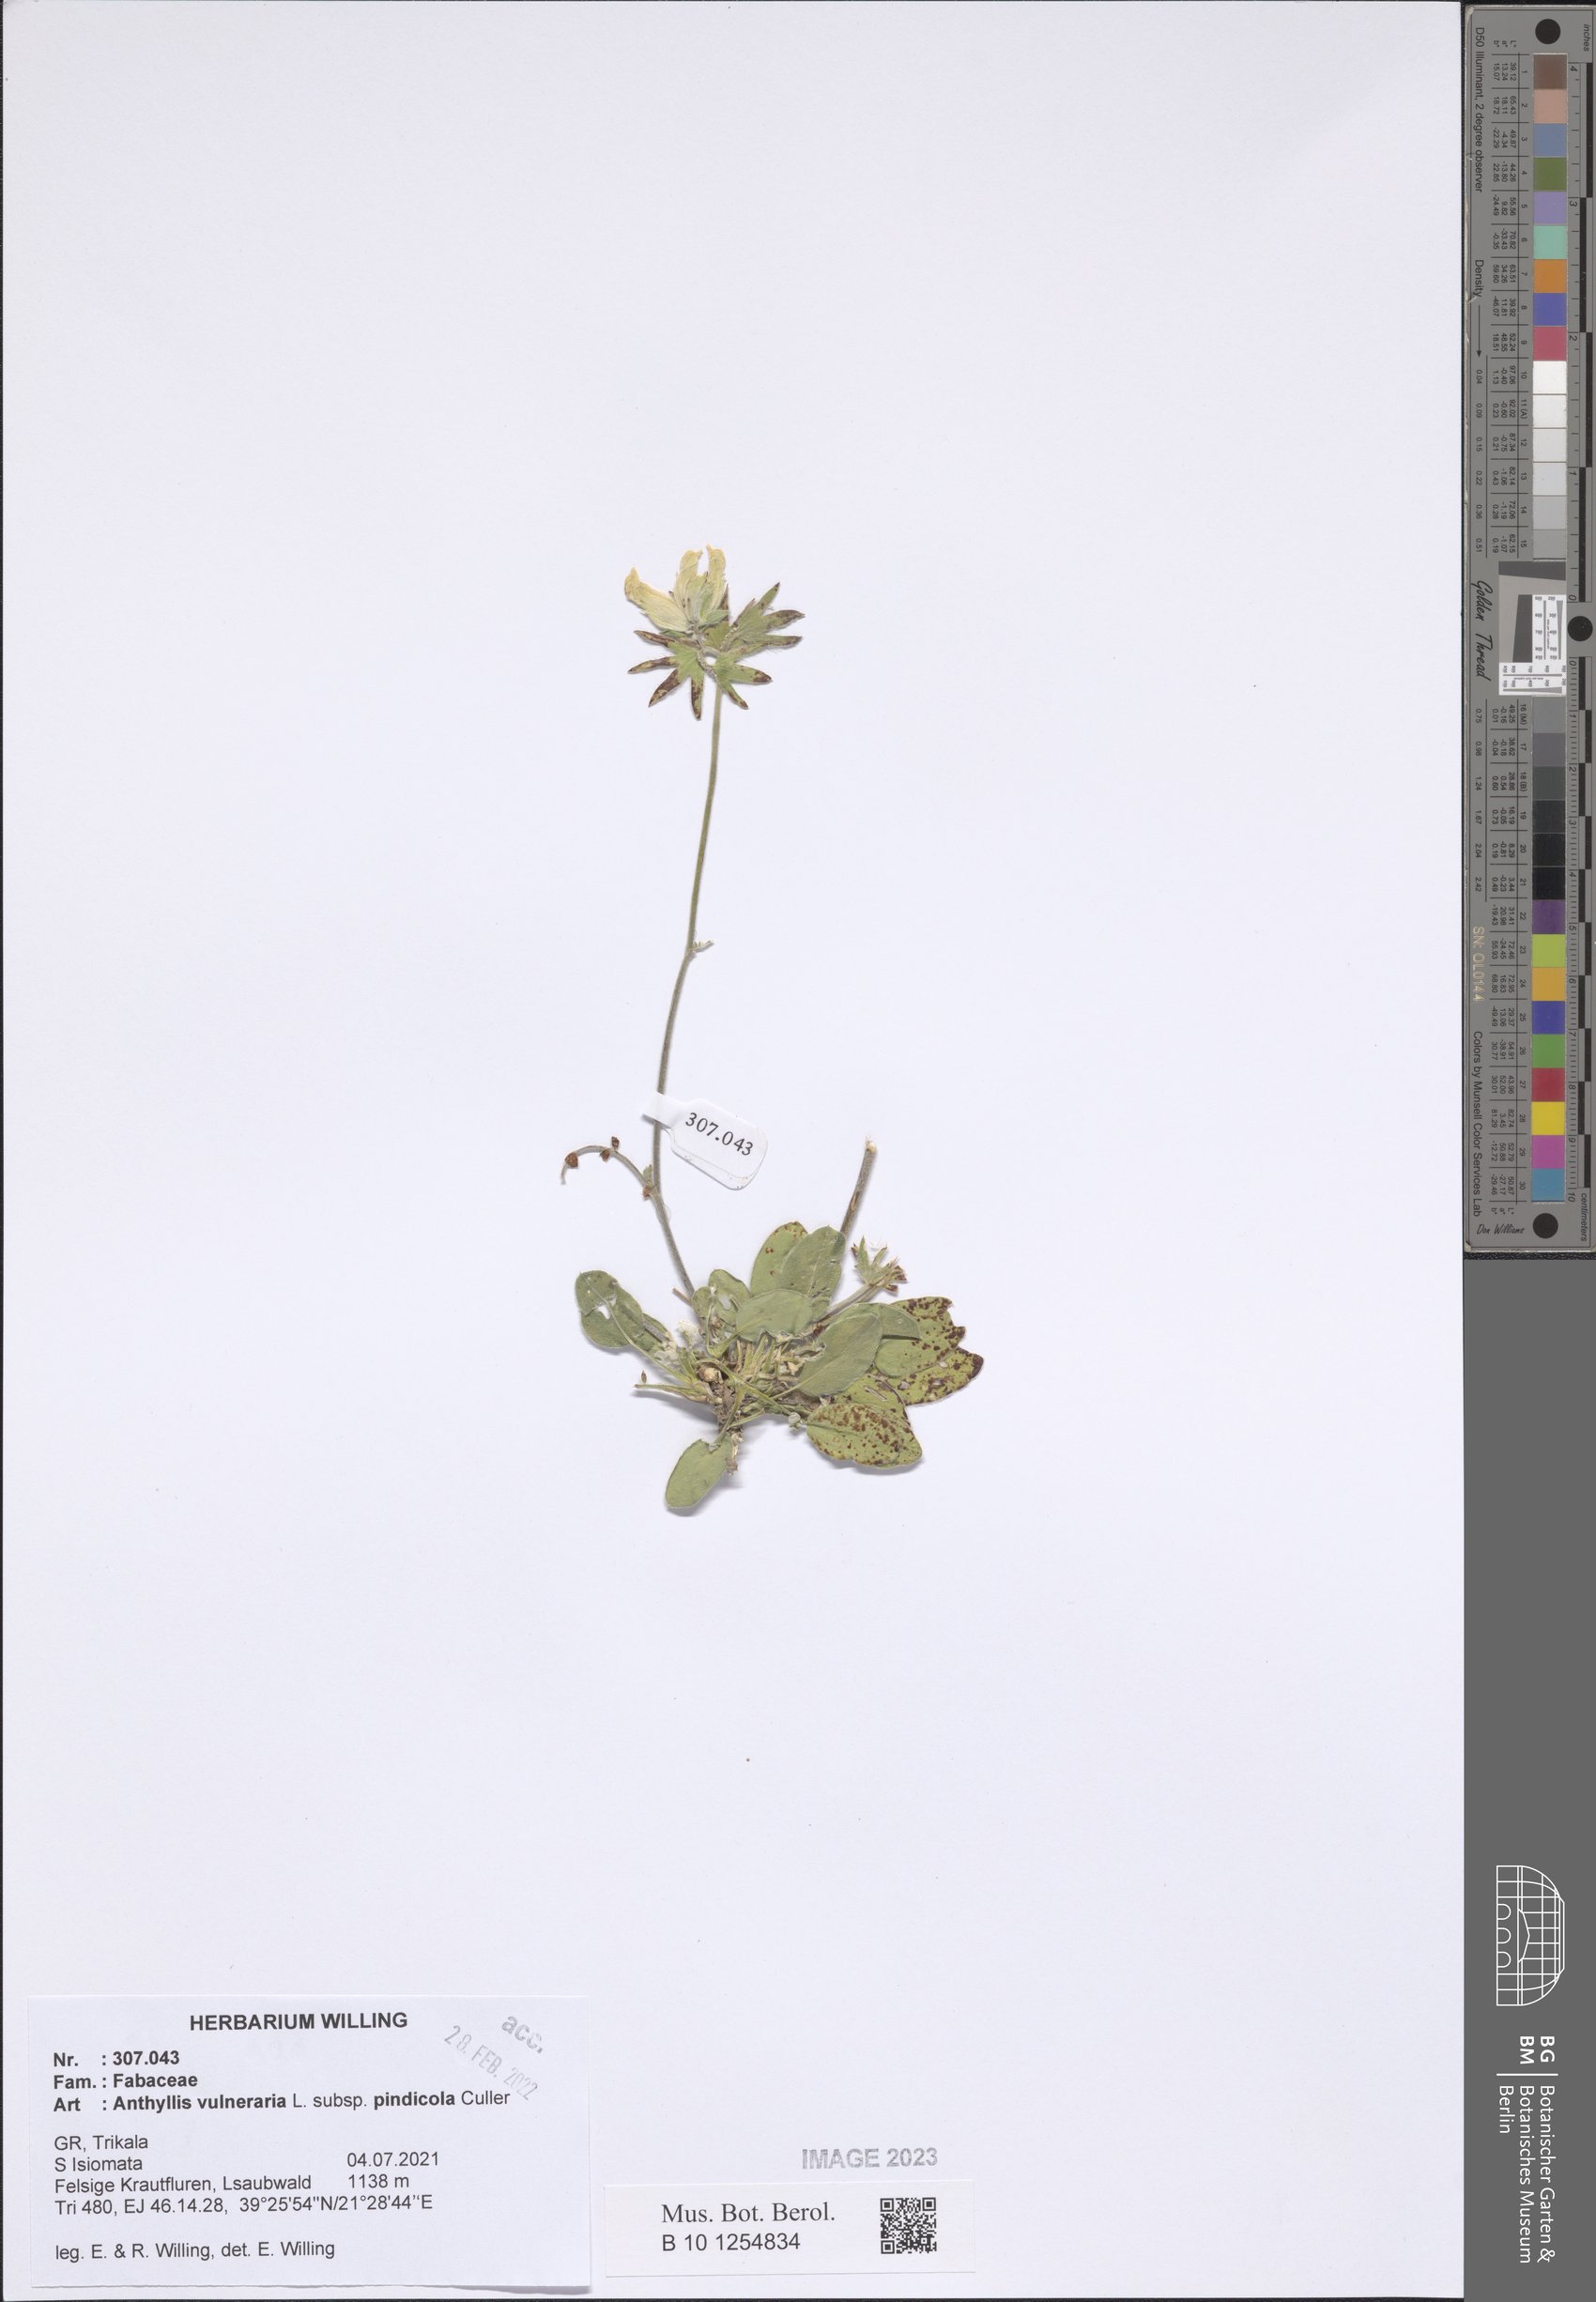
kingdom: Plantae
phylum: Tracheophyta
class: Magnoliopsida
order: Fabales
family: Fabaceae
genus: Anthyllis
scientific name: Anthyllis vulneraria
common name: Kidney vetch
